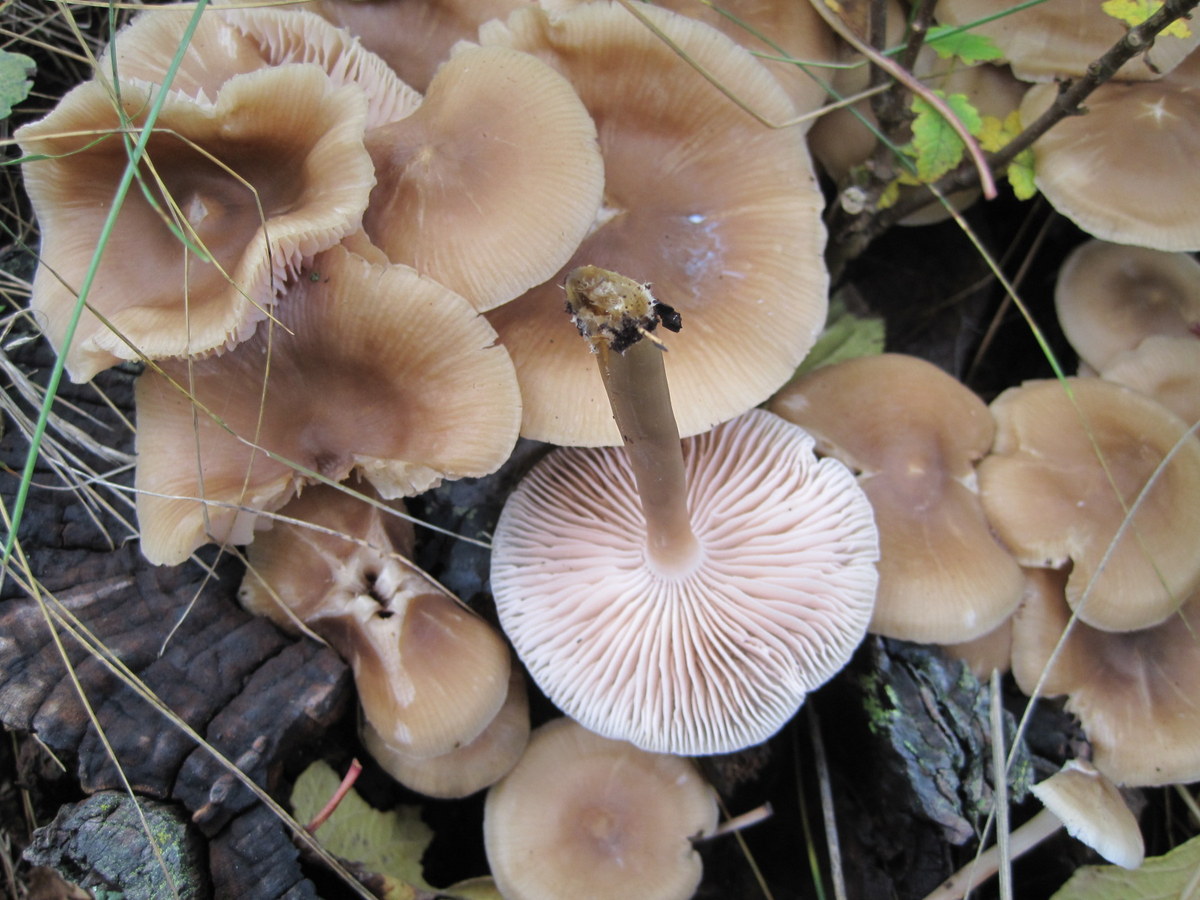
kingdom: Fungi
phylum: Basidiomycota
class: Agaricomycetes
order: Agaricales
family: Mycenaceae
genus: Mycena
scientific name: Mycena galericulata
